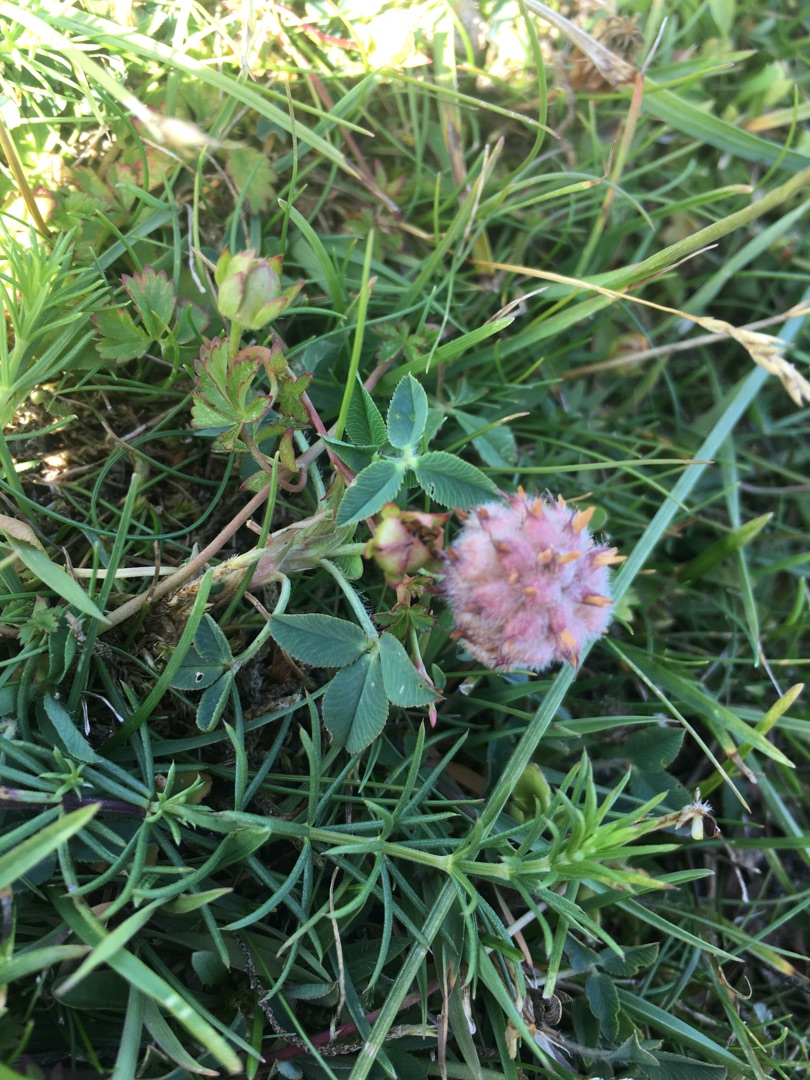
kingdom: Plantae
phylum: Tracheophyta
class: Magnoliopsida
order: Fabales
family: Fabaceae
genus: Trifolium
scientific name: Trifolium fragiferum
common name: Jordbær-kløver
